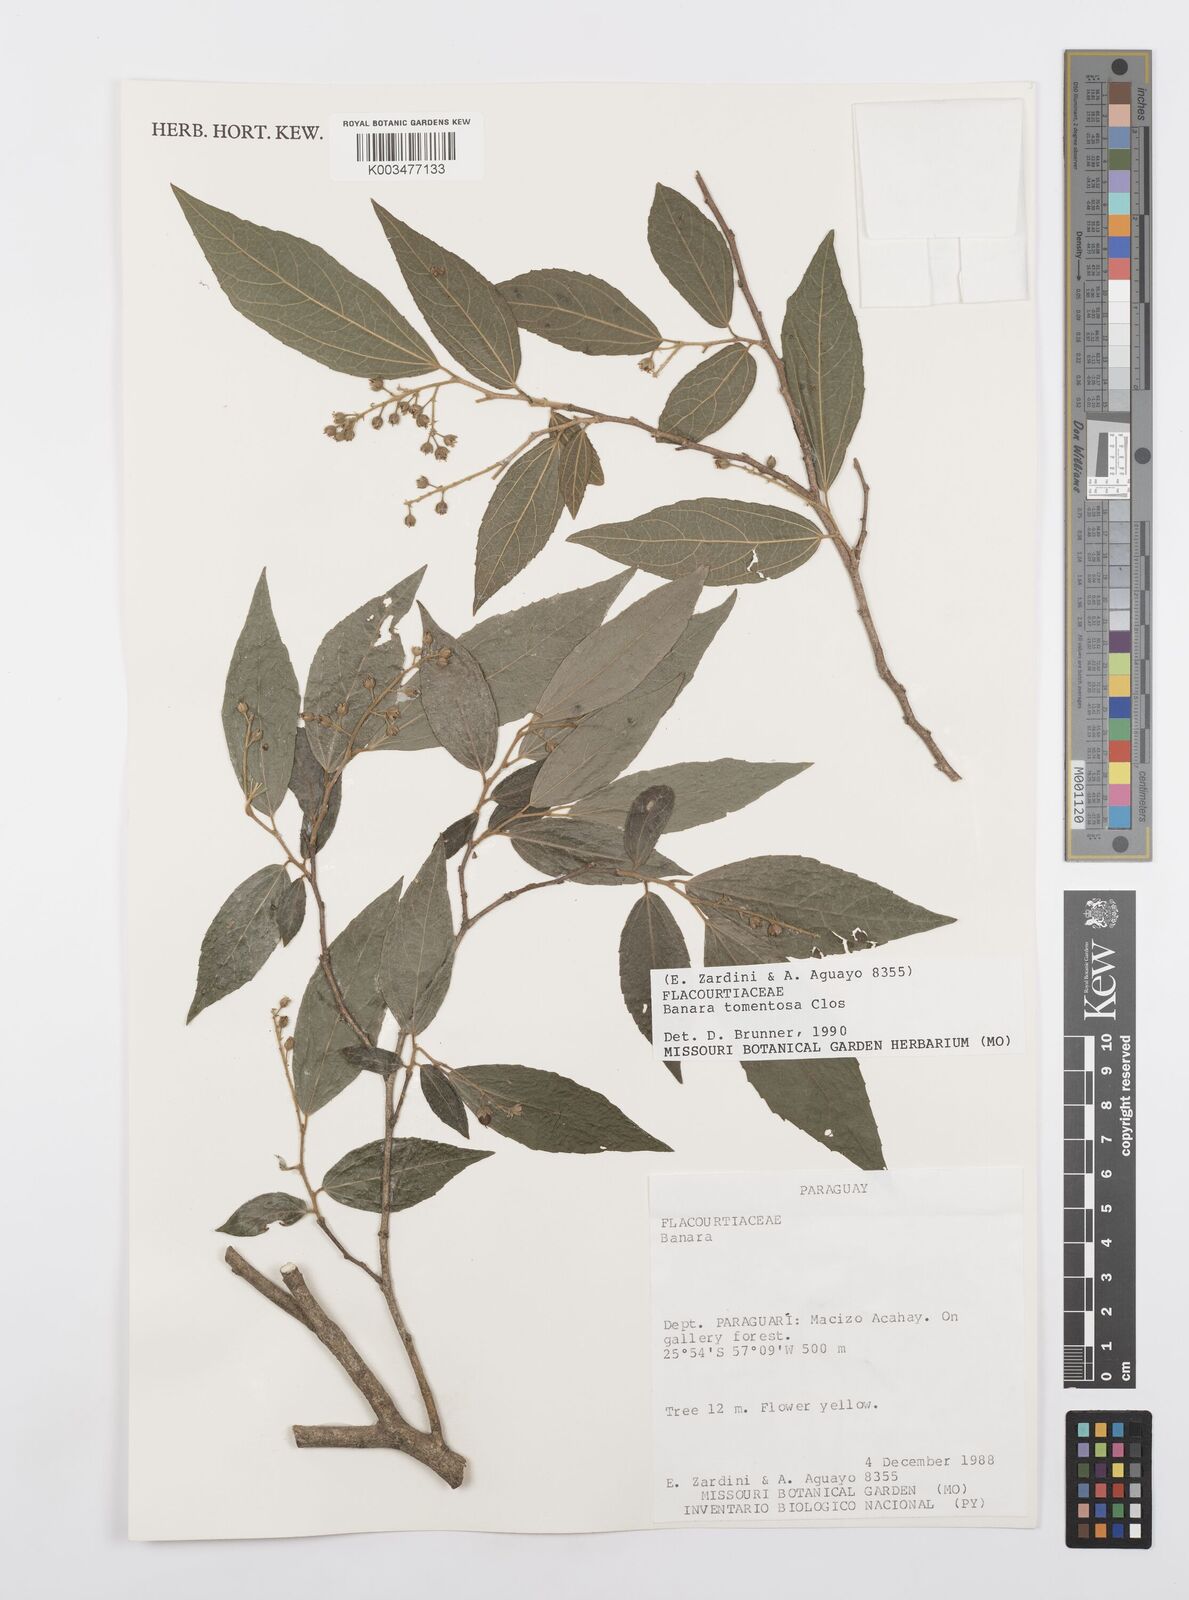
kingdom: Plantae
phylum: Tracheophyta
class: Magnoliopsida
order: Malpighiales
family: Salicaceae
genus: Banara
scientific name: Banara tomentosa
